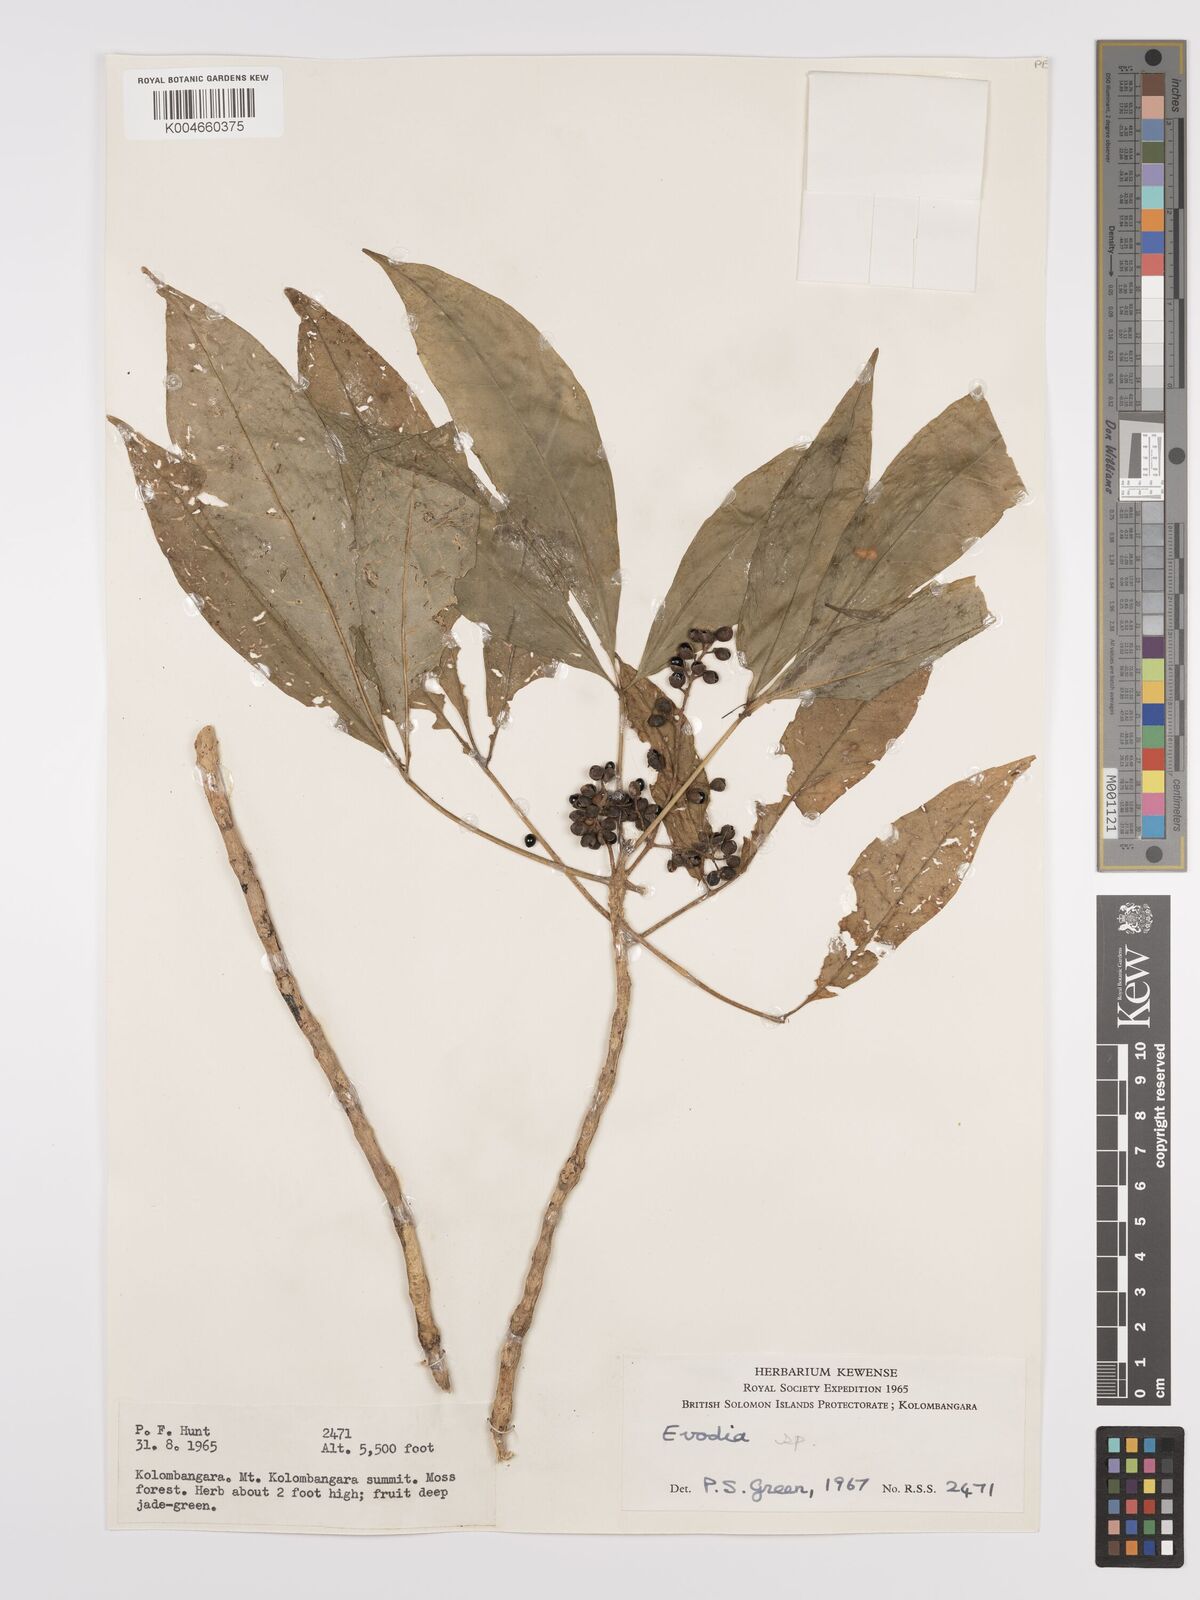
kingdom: Plantae
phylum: Tracheophyta
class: Magnoliopsida
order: Sapindales
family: Rutaceae
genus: Euodia
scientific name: Euodia
